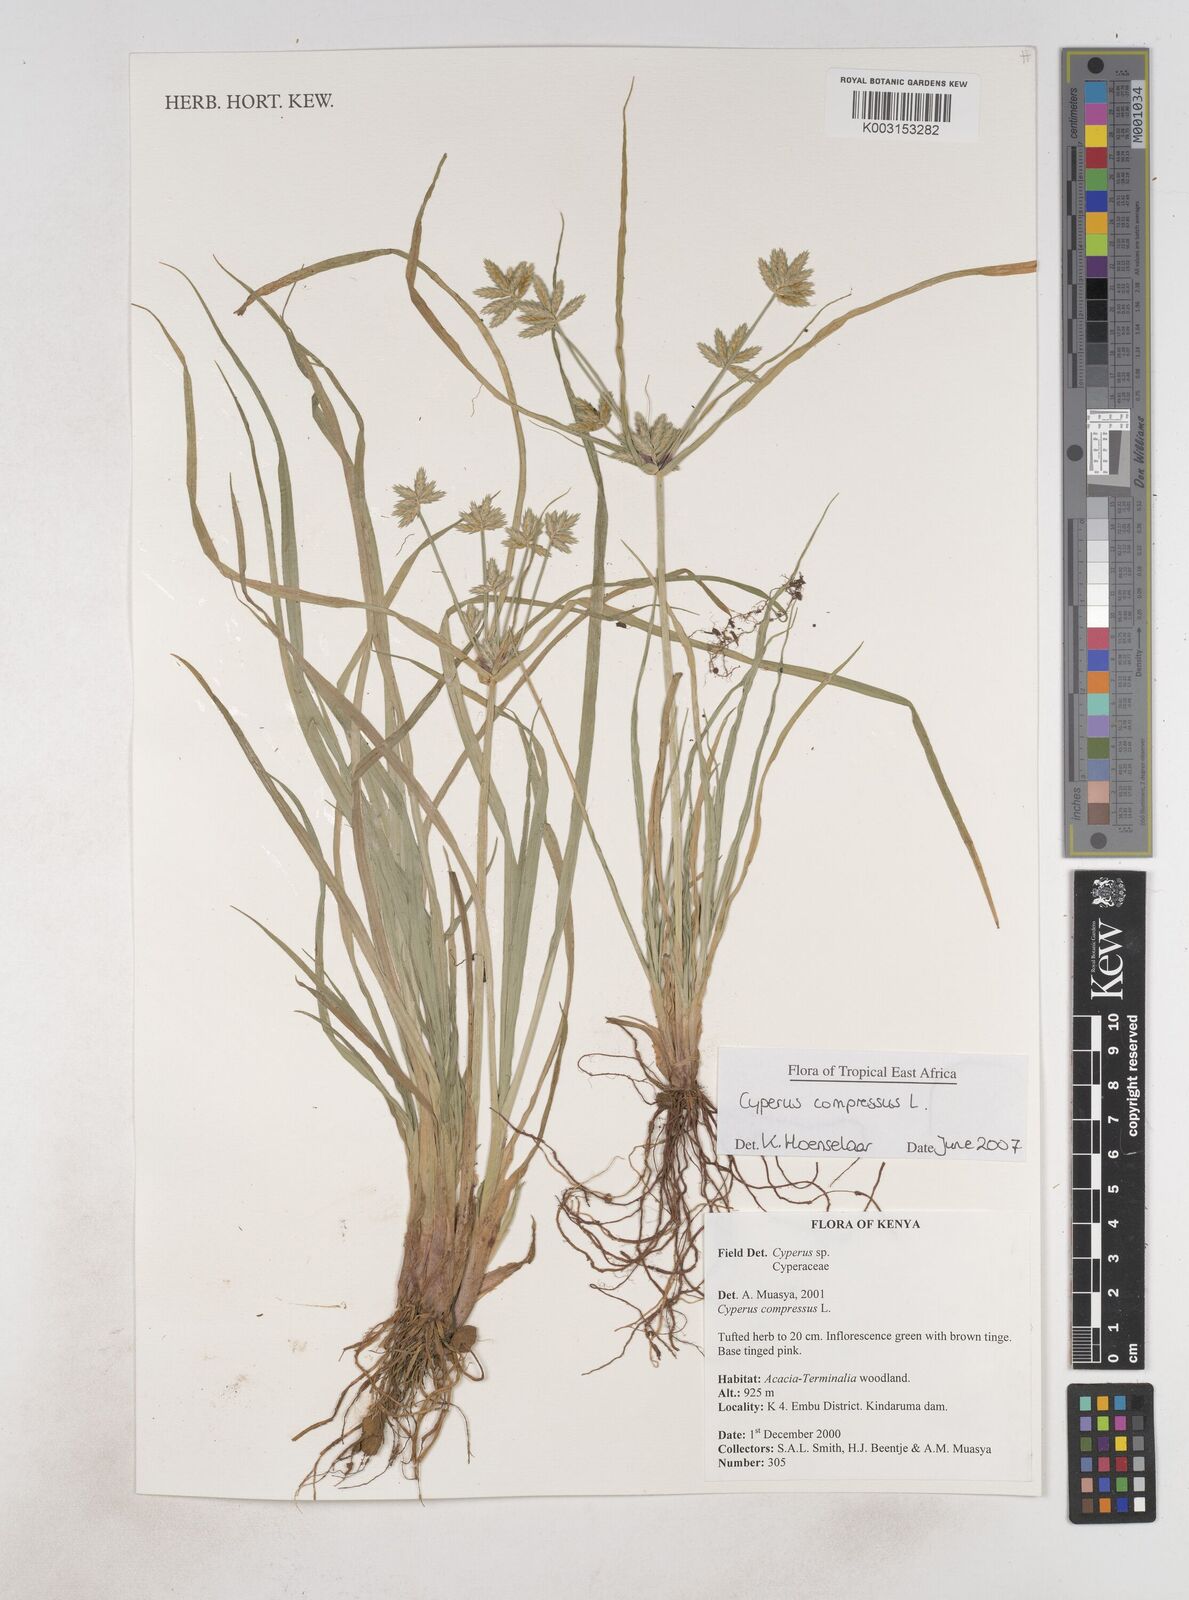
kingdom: Plantae
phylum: Tracheophyta
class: Liliopsida
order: Poales
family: Cyperaceae
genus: Cyperus
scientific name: Cyperus compressus
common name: Poorland flatsedge
